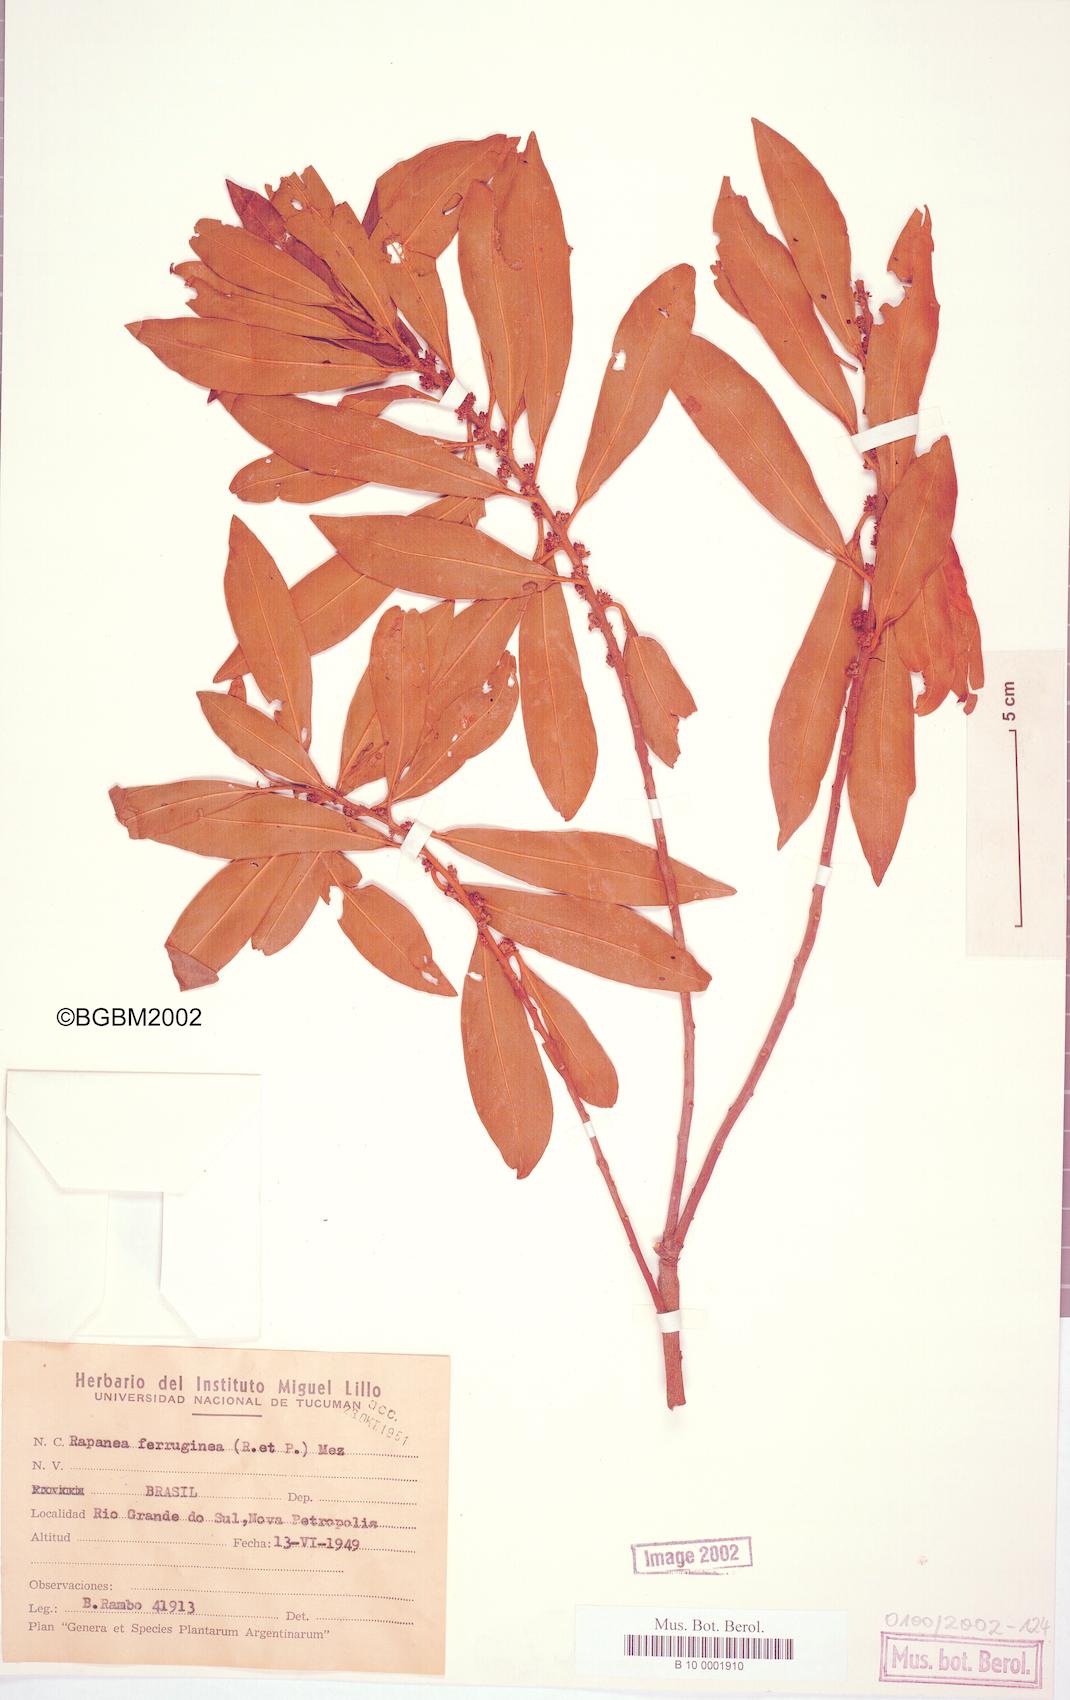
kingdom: Plantae
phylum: Tracheophyta
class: Magnoliopsida
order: Ericales
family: Primulaceae
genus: Myrsine
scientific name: Myrsine coriacea
